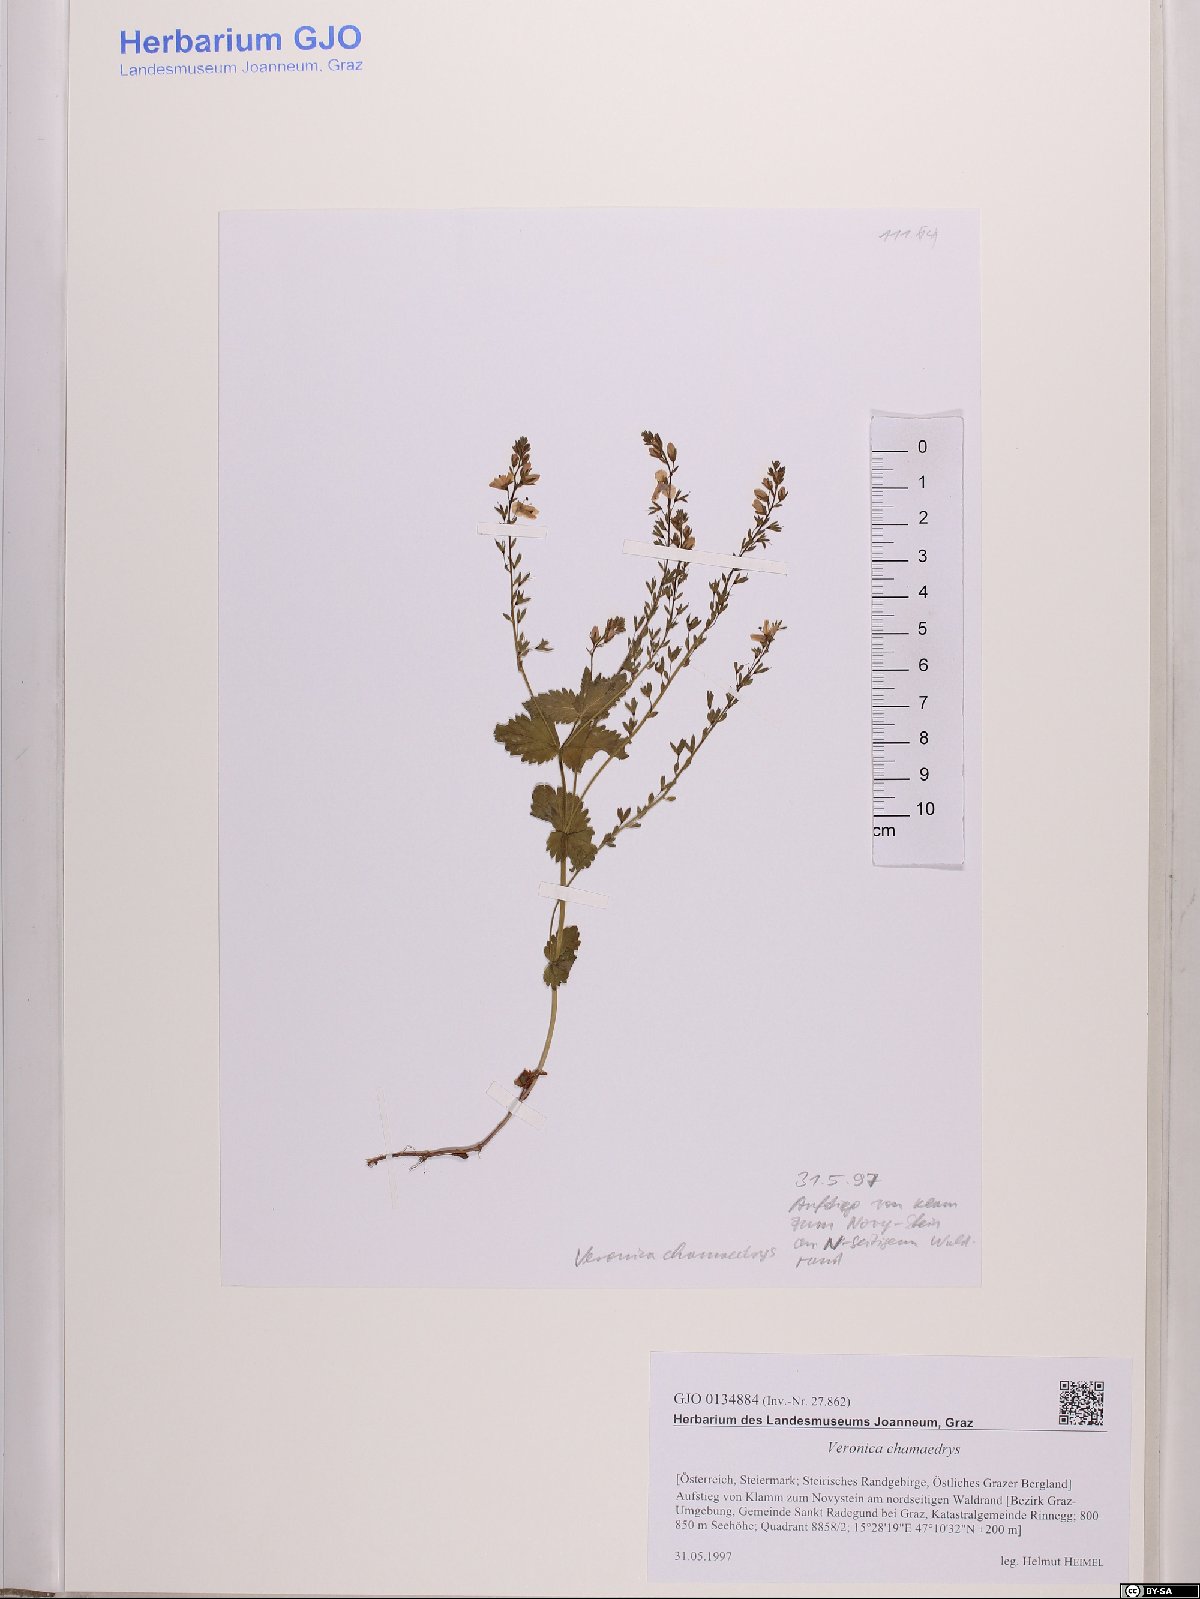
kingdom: Plantae
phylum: Tracheophyta
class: Magnoliopsida
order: Lamiales
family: Plantaginaceae
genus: Veronica
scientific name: Veronica chamaedrys
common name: Germander speedwell
